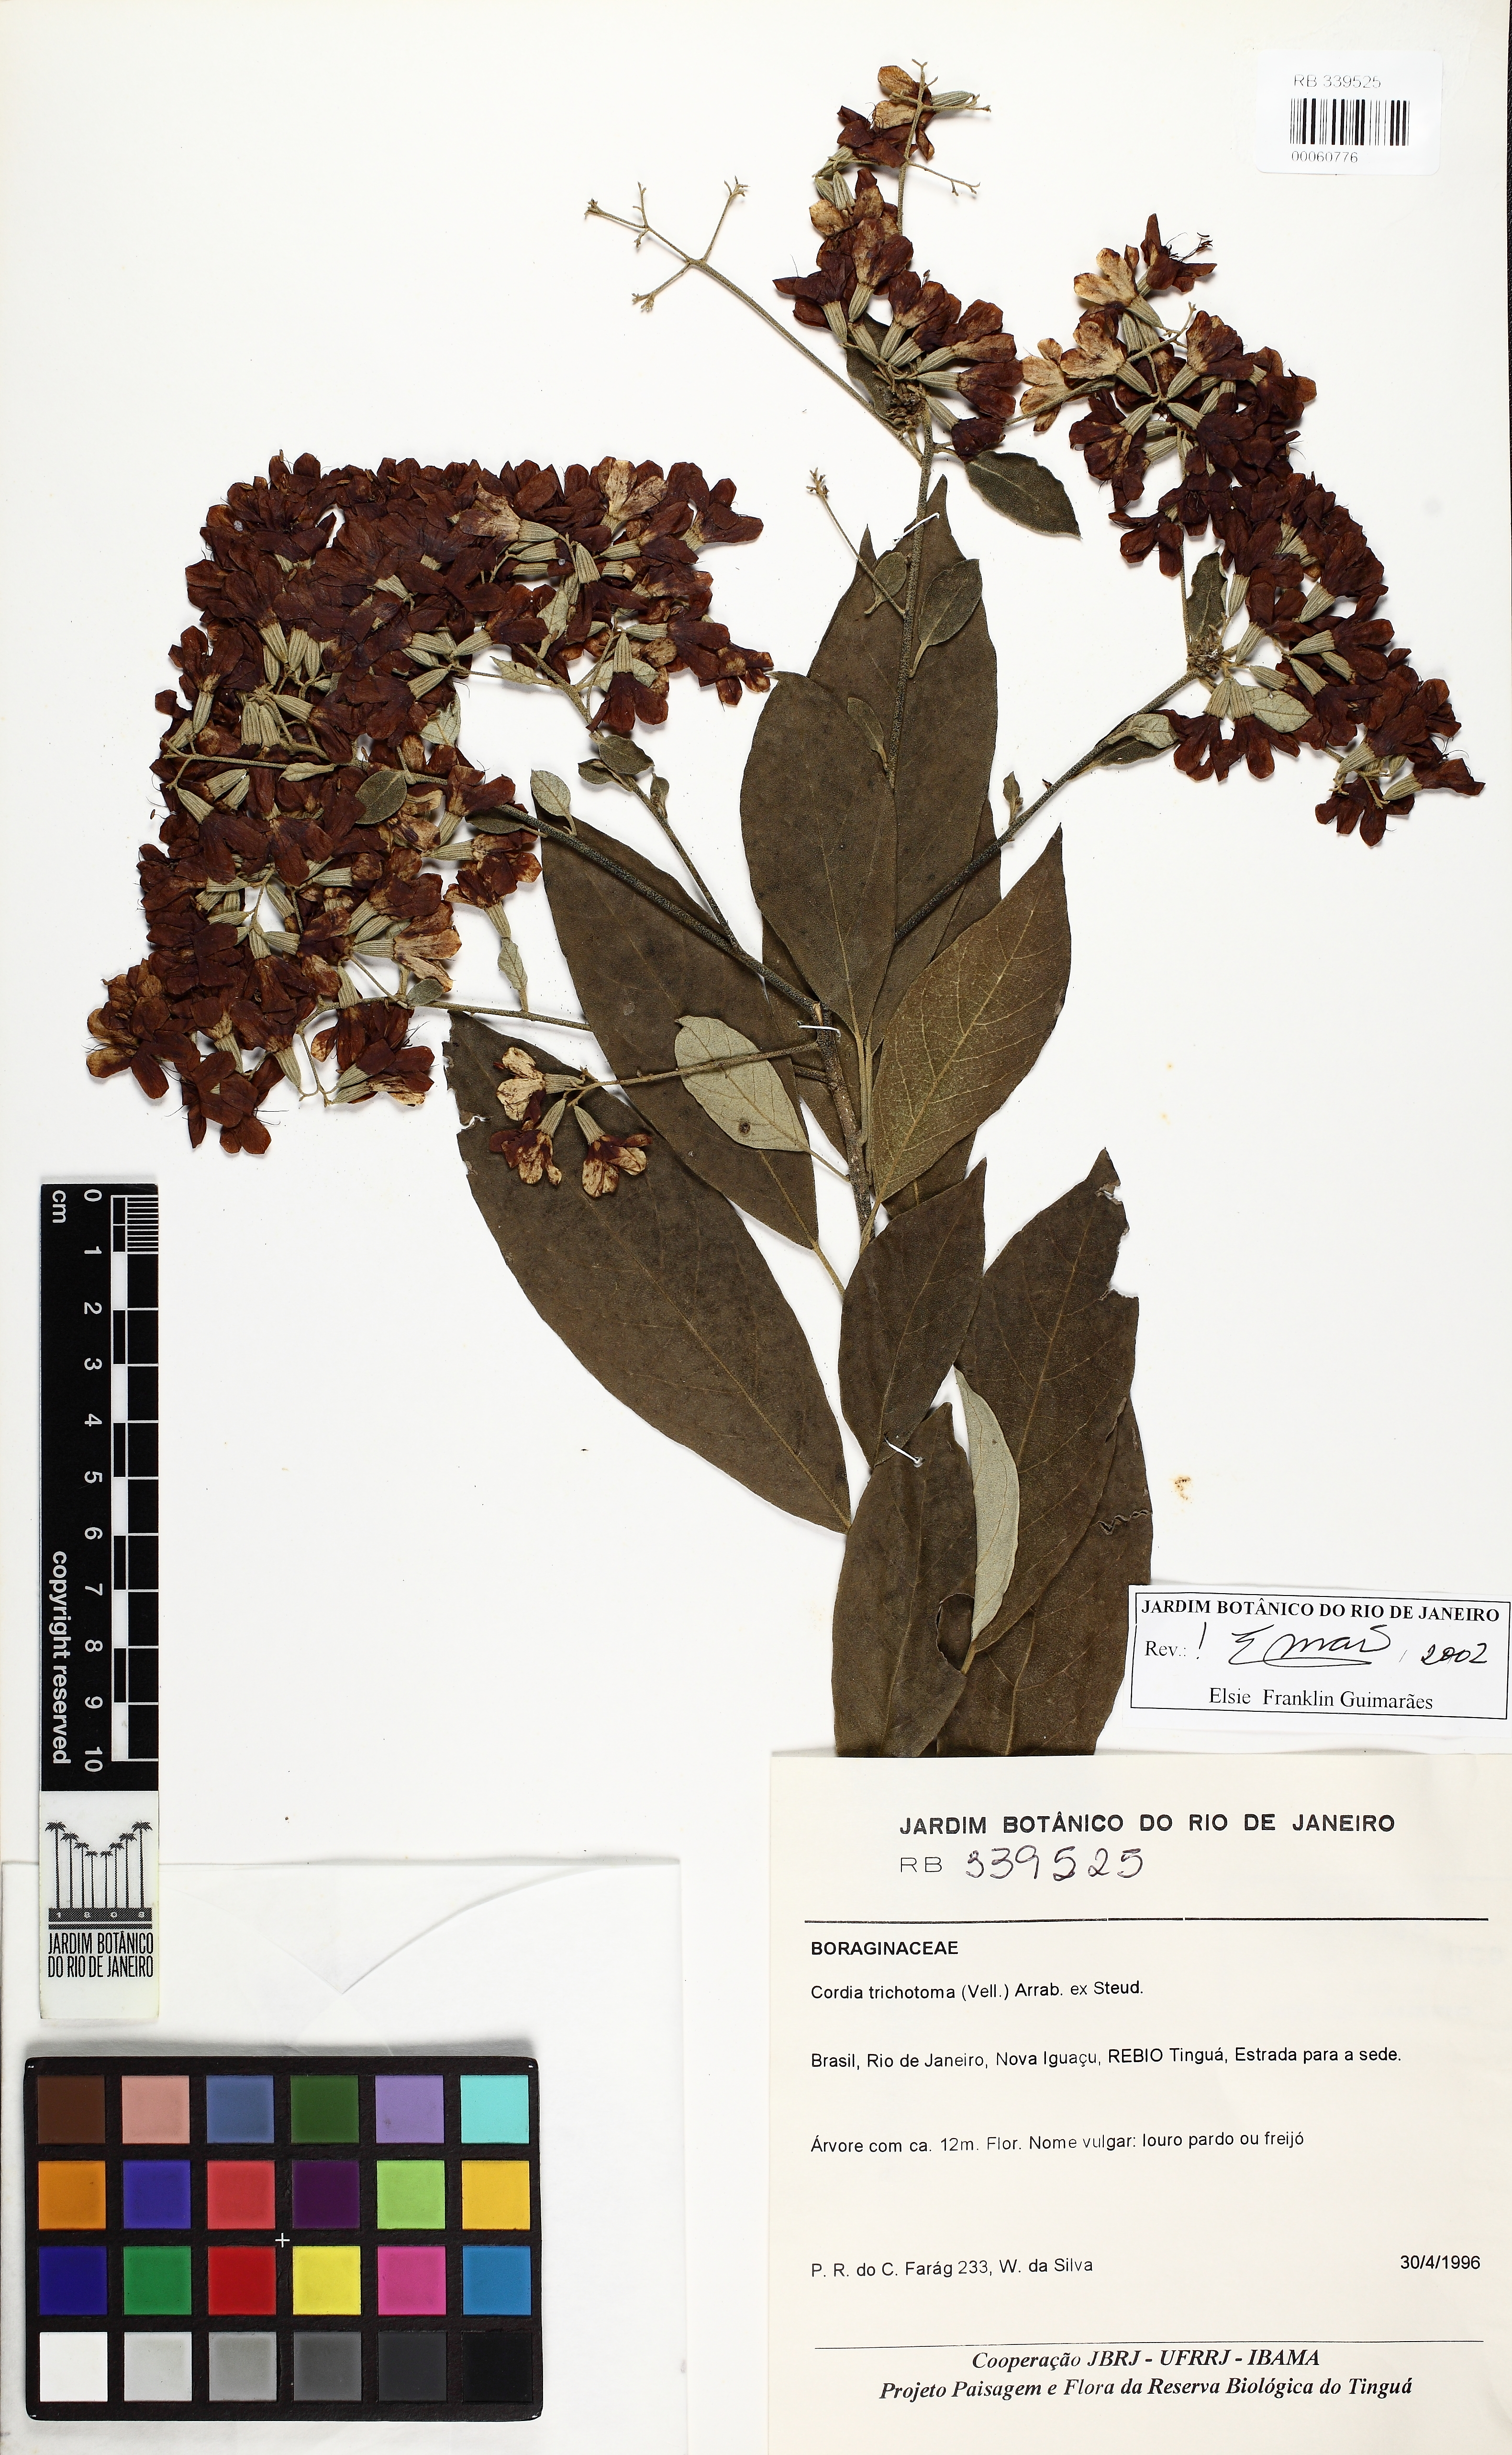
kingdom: Plantae
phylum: Tracheophyta
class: Magnoliopsida
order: Boraginales
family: Cordiaceae
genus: Cordia
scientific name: Cordia trichotoma
